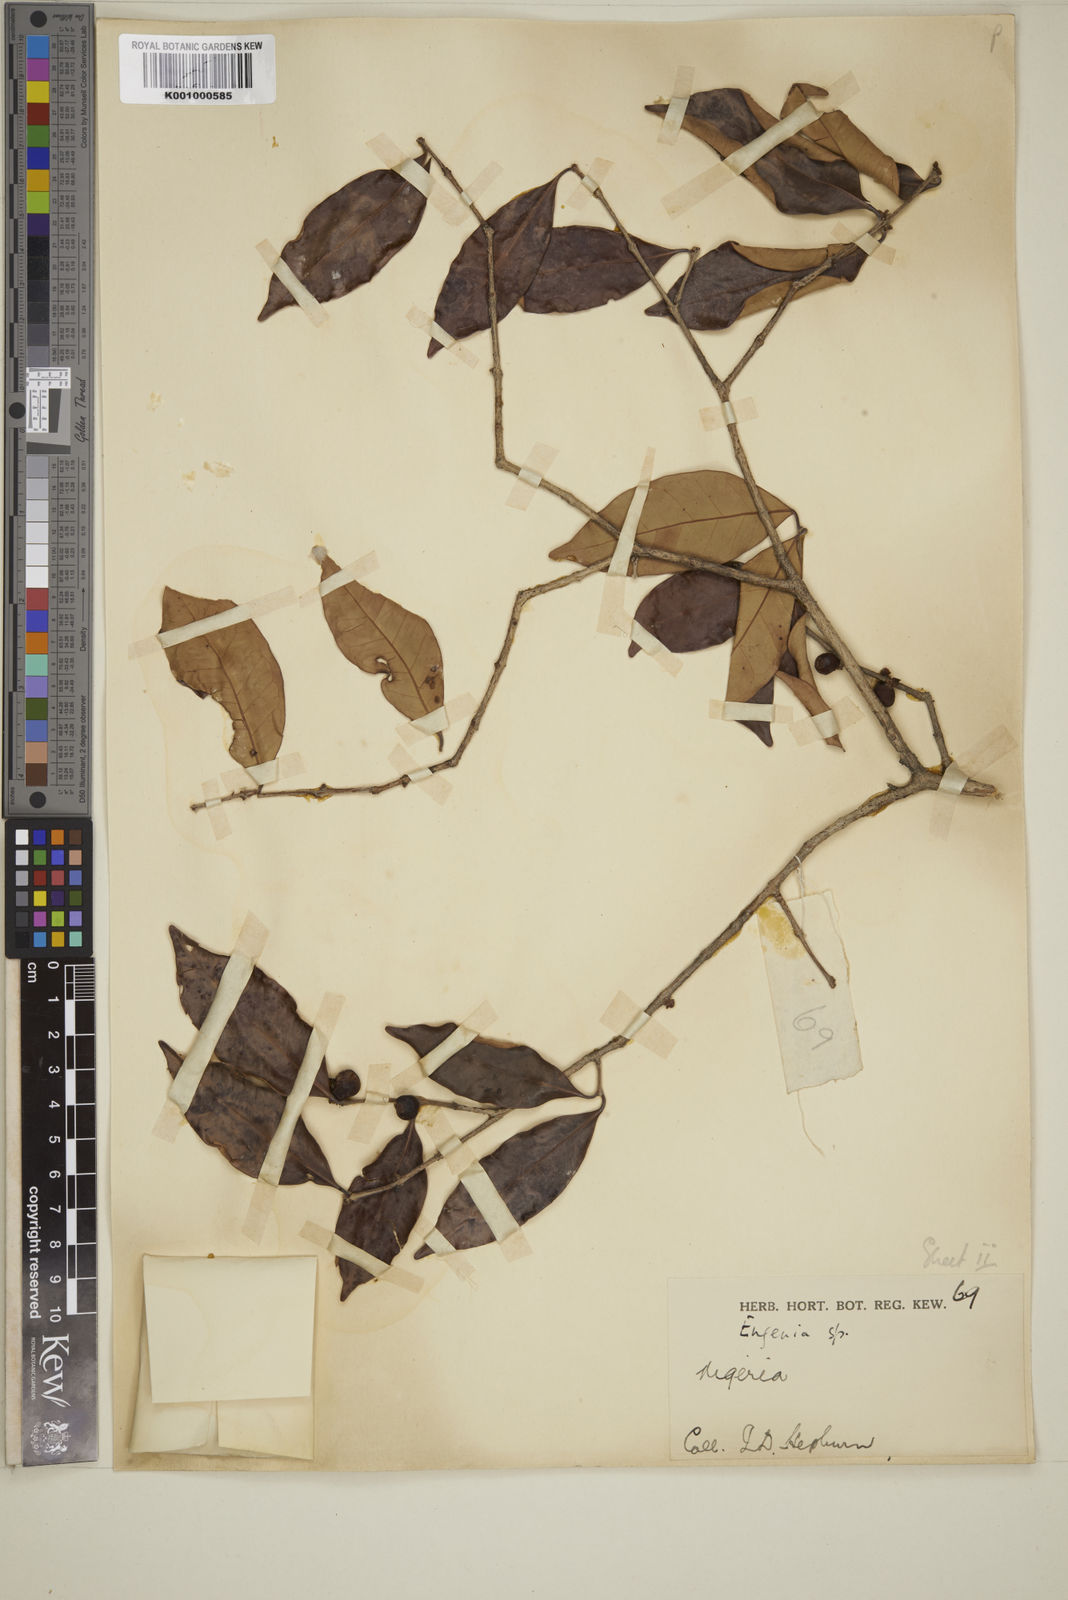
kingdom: Plantae
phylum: Tracheophyta
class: Magnoliopsida
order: Myrtales
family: Myrtaceae
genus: Eugenia
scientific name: Eugenia buchholzii
